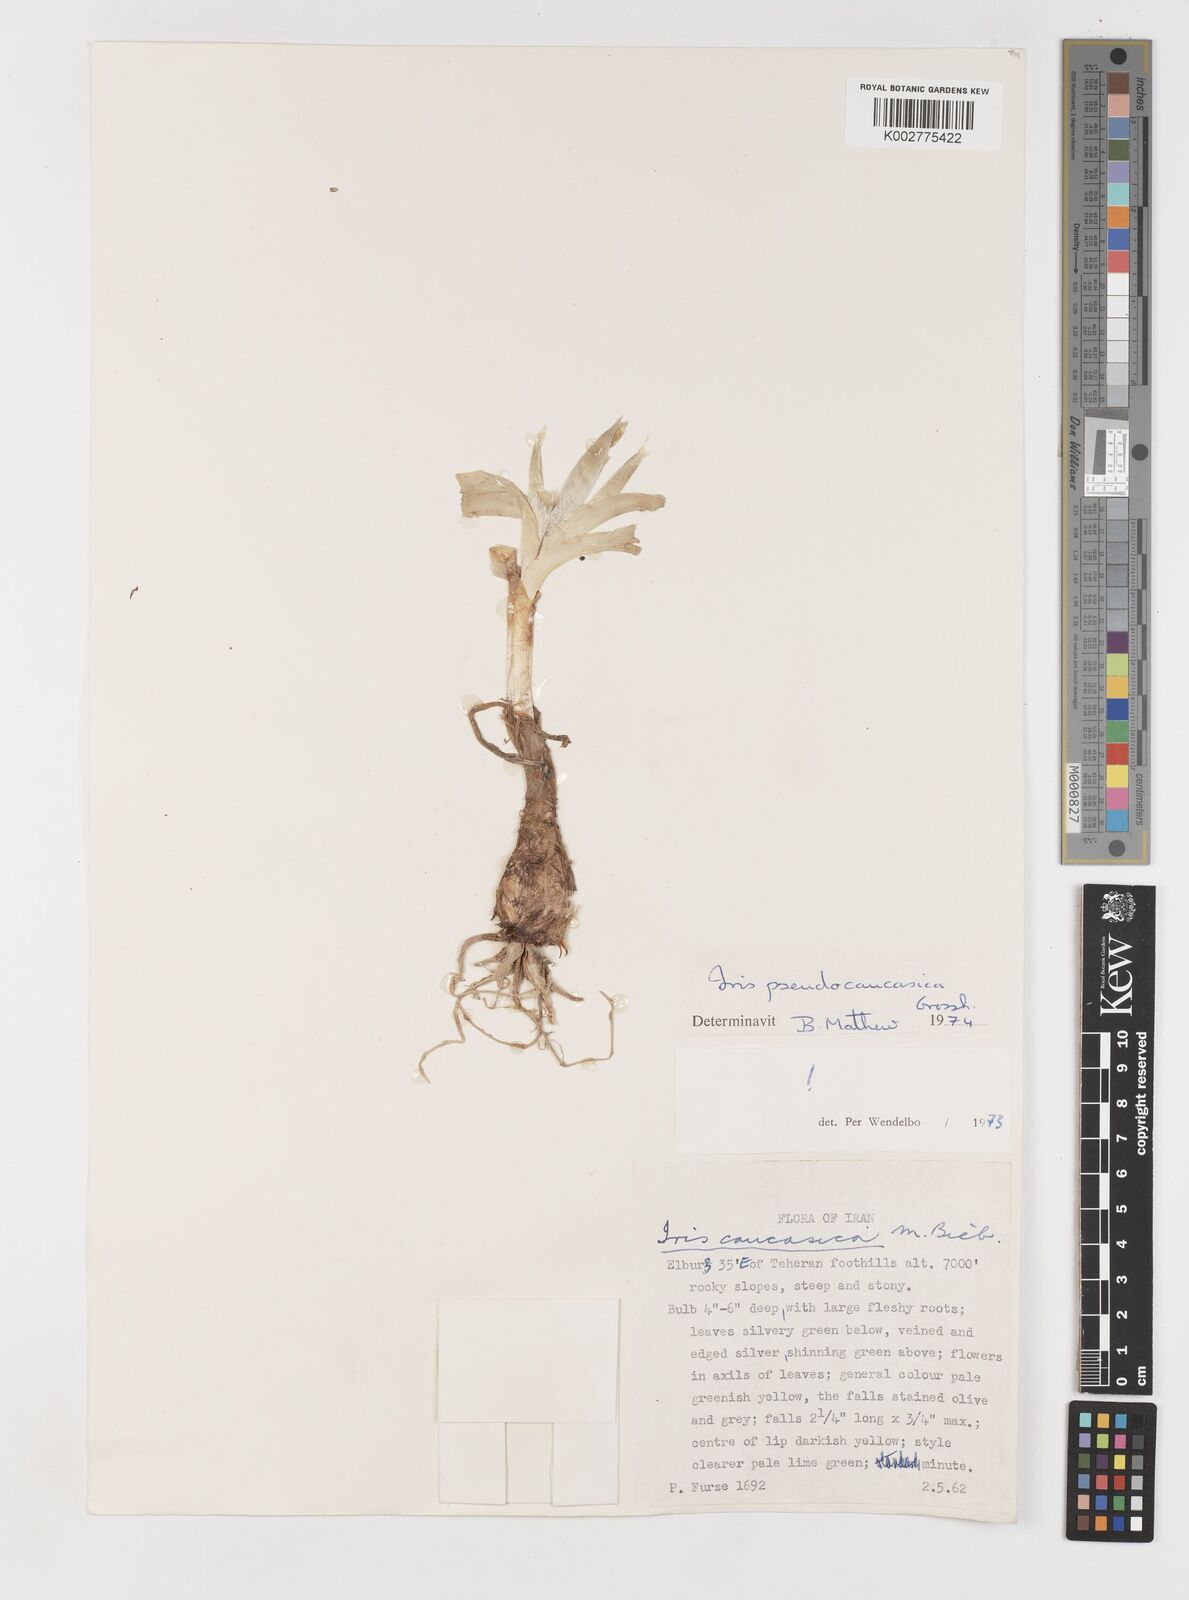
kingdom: Plantae
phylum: Tracheophyta
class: Liliopsida
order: Asparagales
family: Iridaceae
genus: Iris
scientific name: Iris pseudocaucasica
